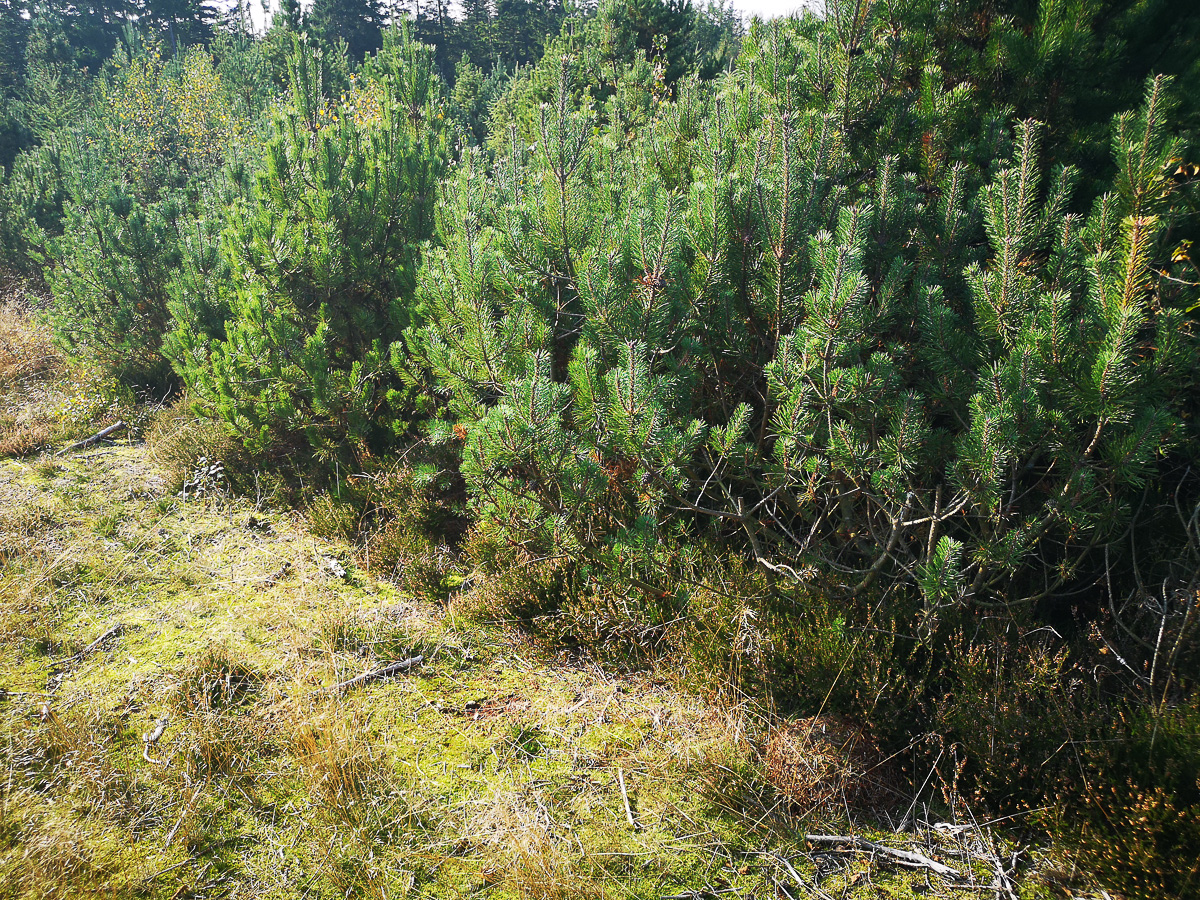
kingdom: Fungi
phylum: Basidiomycota
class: Agaricomycetes
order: Agaricales
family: Mycenaceae
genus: Mycena
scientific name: Mycena epipterygia
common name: gulstokket huesvamp
